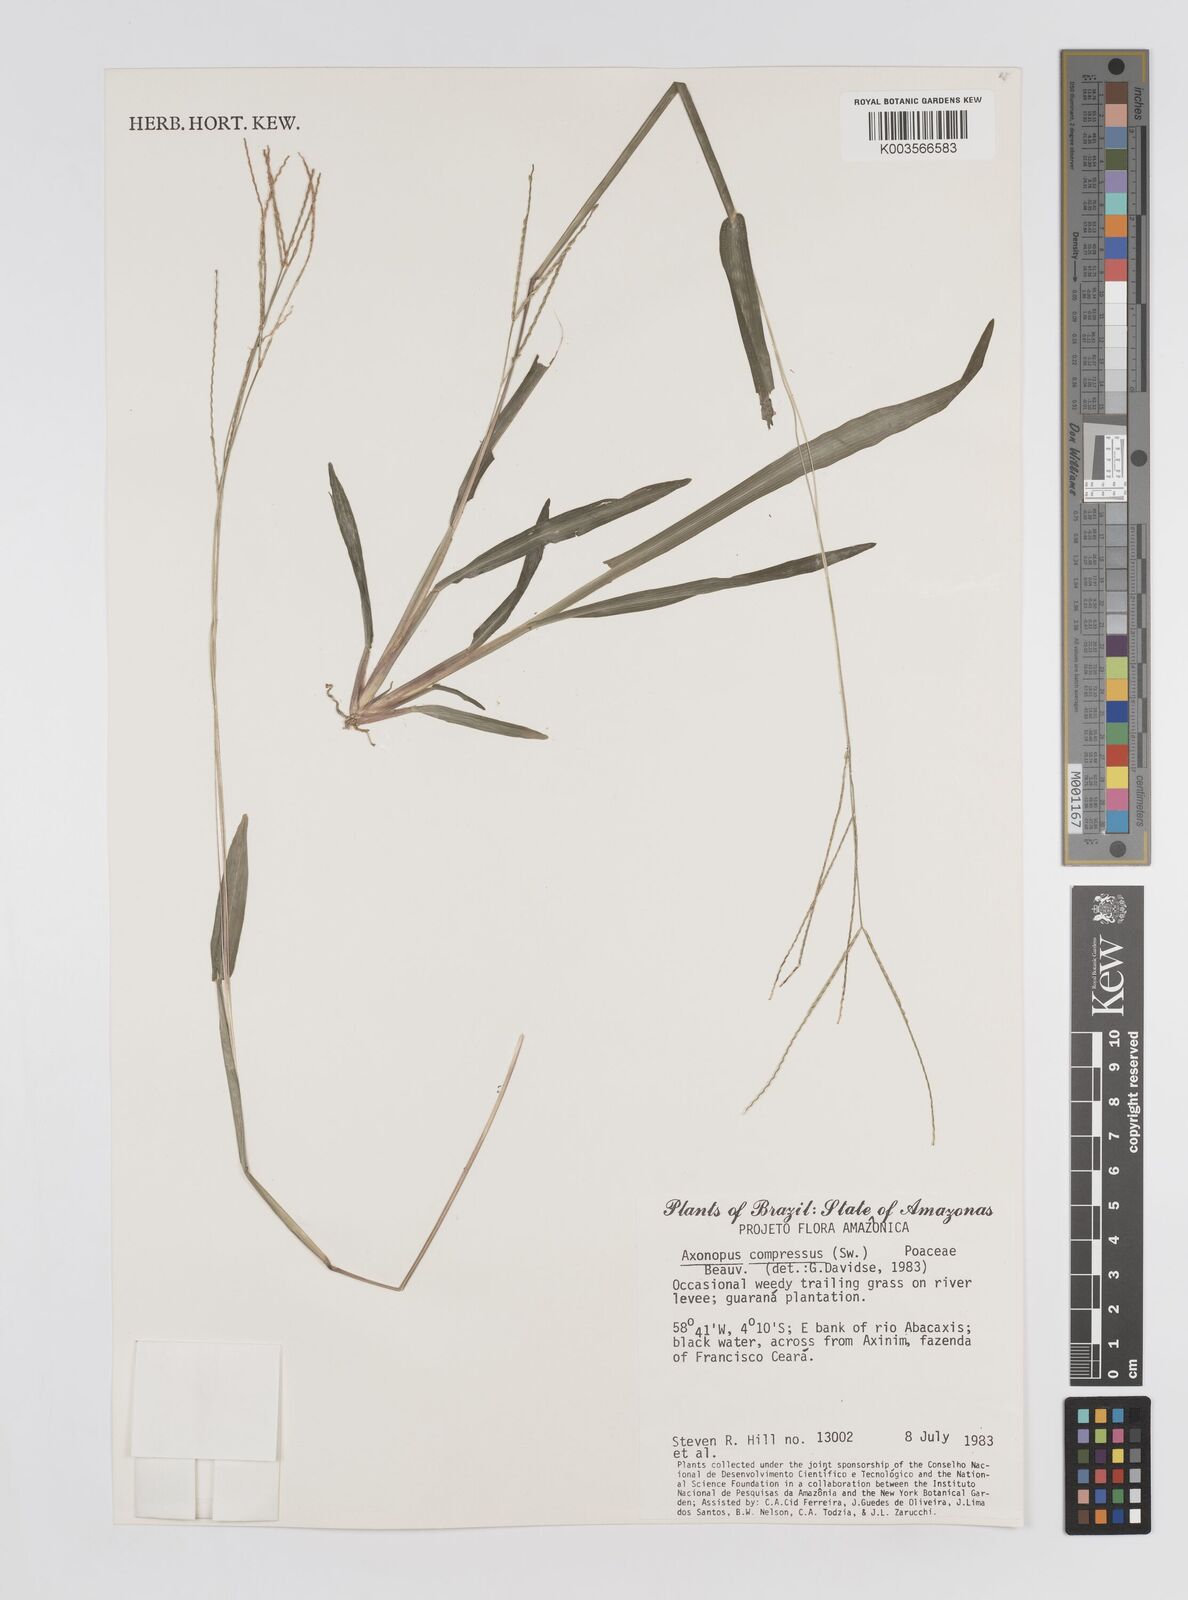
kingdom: Plantae
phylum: Tracheophyta
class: Liliopsida
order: Poales
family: Poaceae
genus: Axonopus
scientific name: Axonopus compressus
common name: American carpet grass
